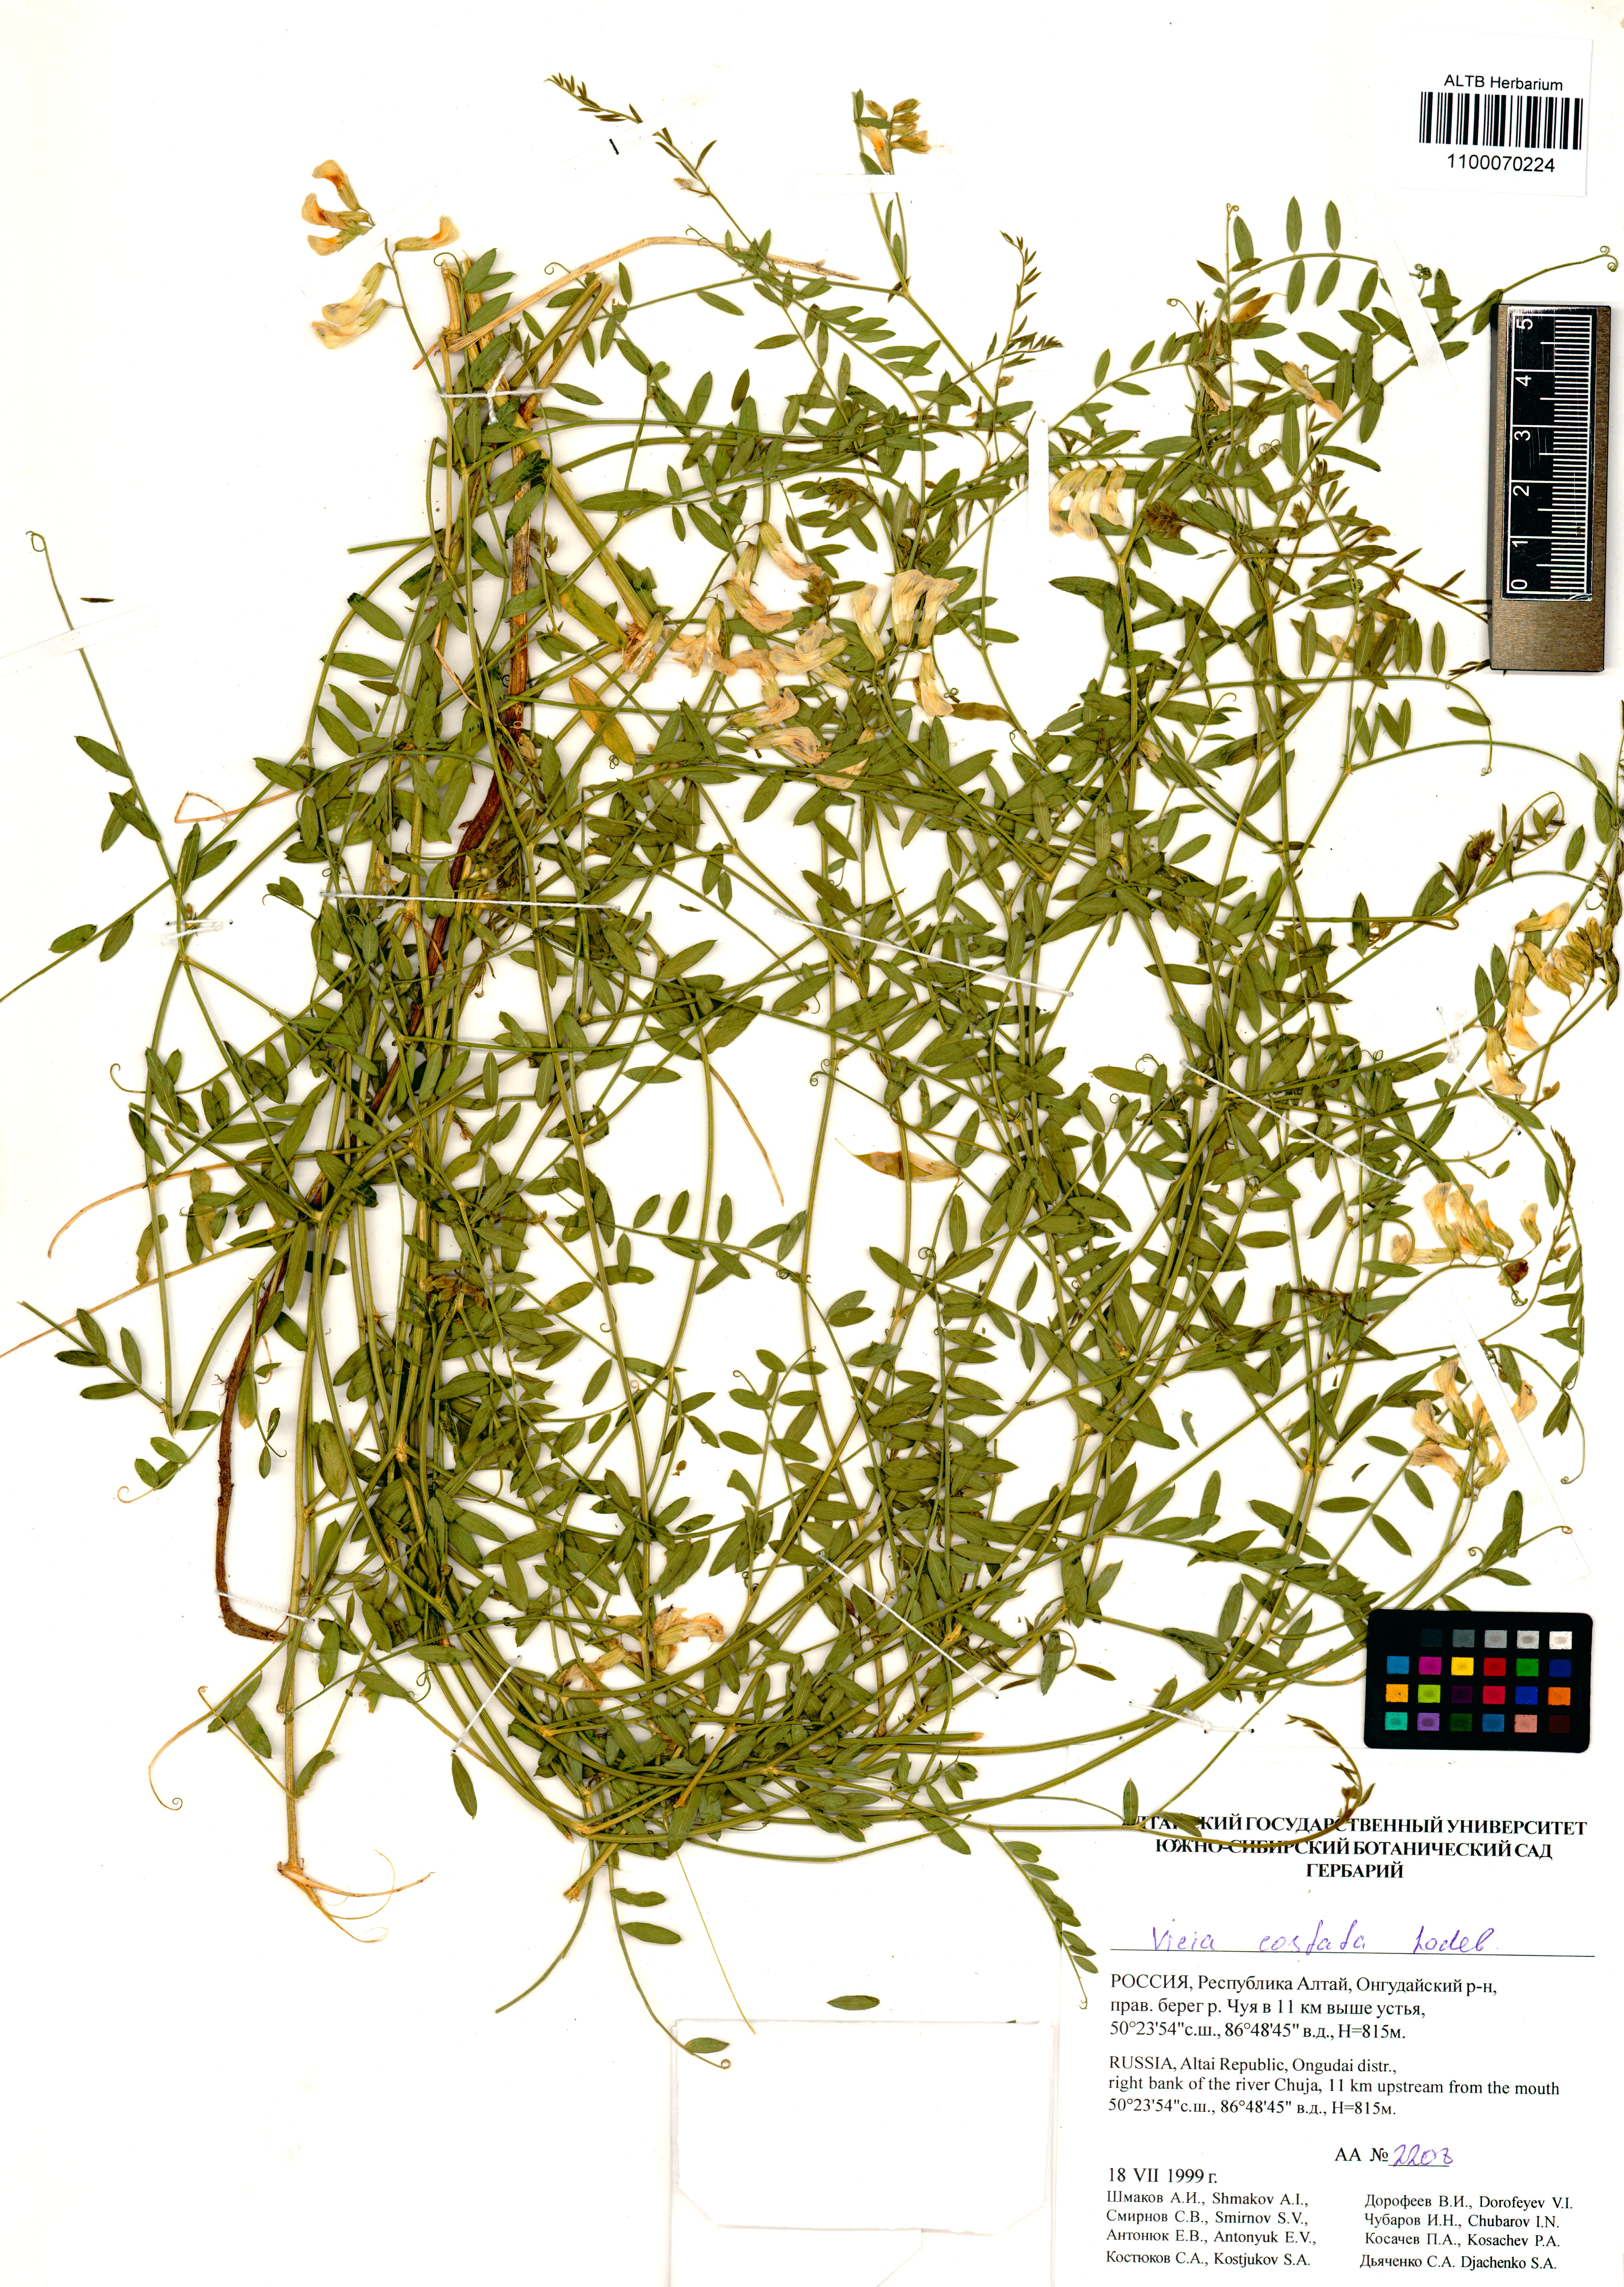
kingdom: Plantae
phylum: Tracheophyta
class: Magnoliopsida
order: Fabales
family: Fabaceae
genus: Vicia
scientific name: Vicia costata
